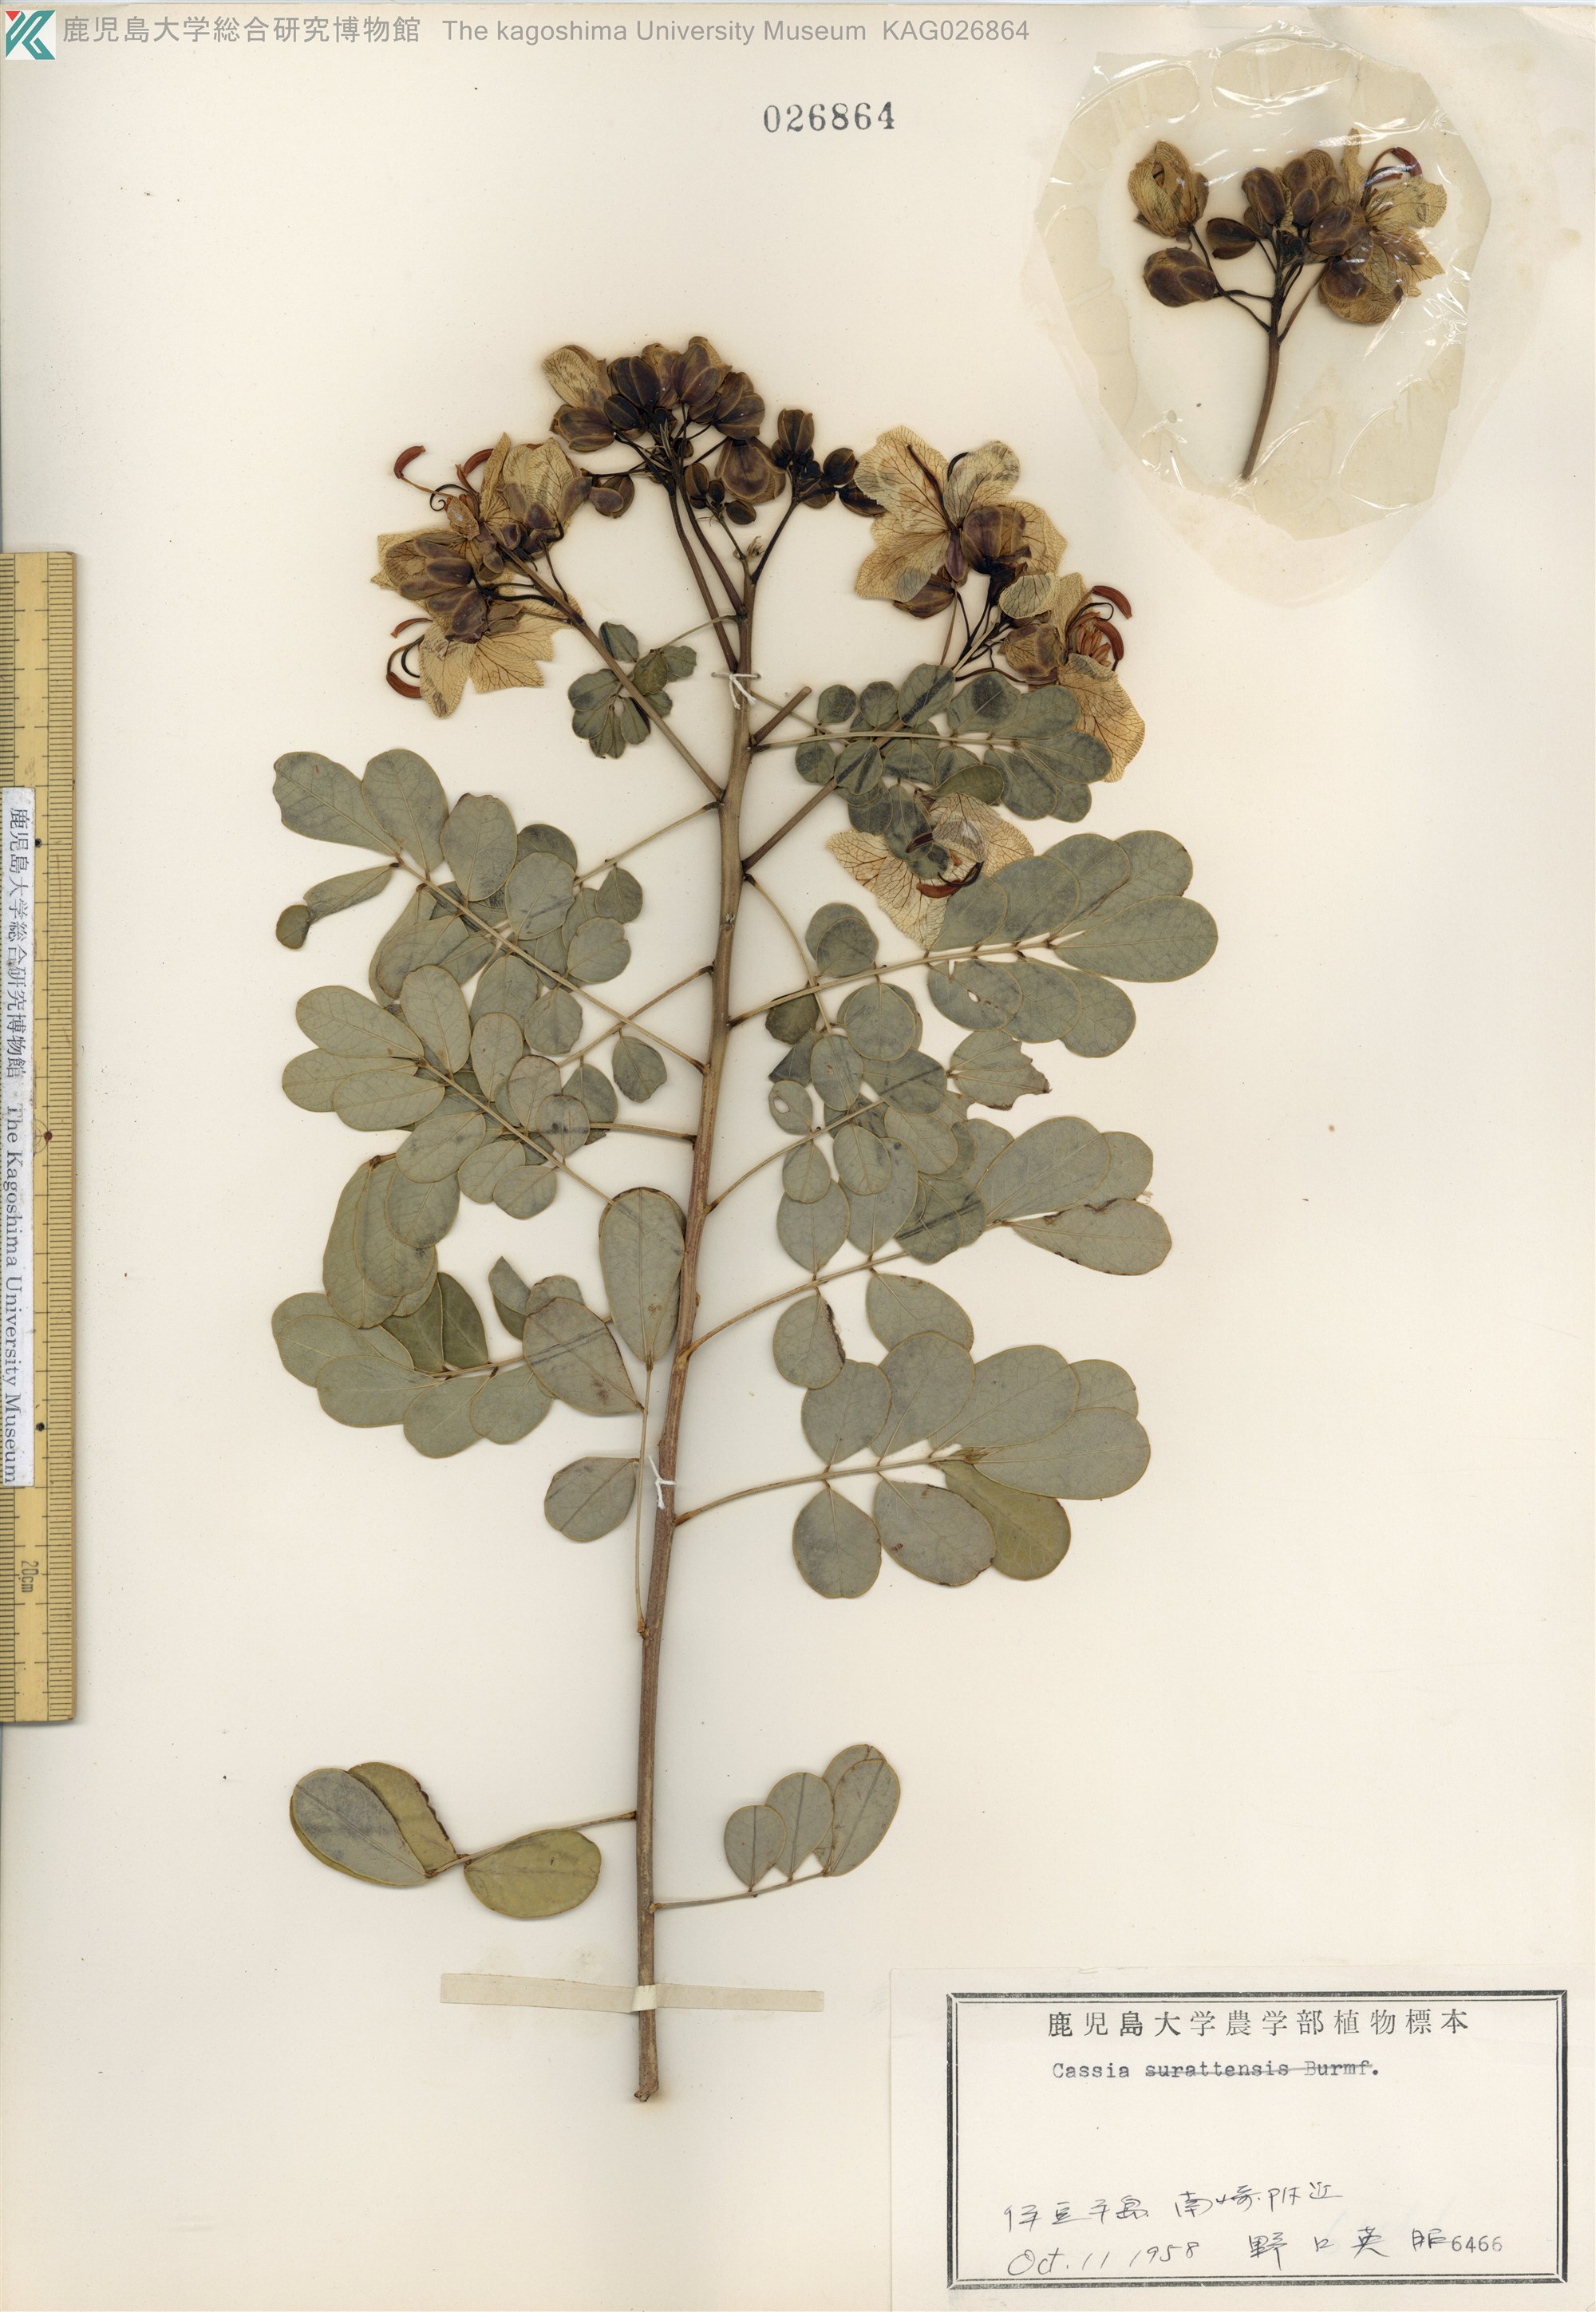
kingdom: Plantae
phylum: Tracheophyta
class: Magnoliopsida
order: Fabales
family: Fabaceae
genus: Cassia
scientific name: Cassia
